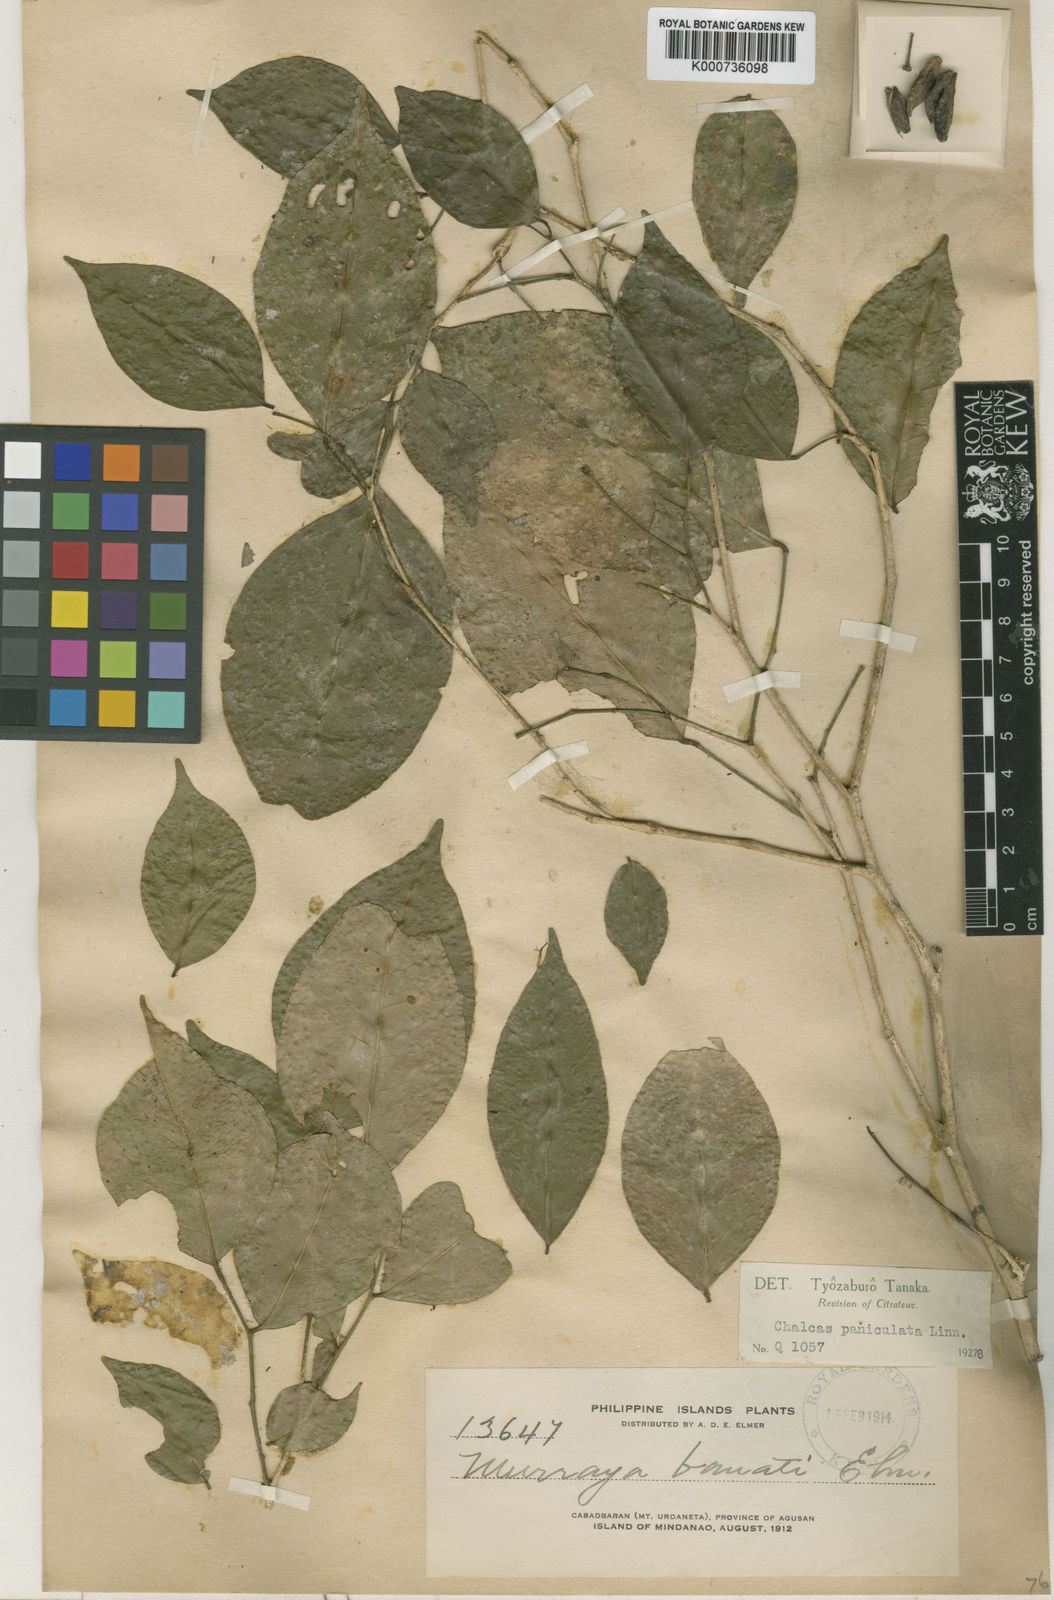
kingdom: Plantae
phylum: Tracheophyta
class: Magnoliopsida
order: Sapindales
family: Rutaceae
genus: Murraya
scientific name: Murraya paniculata
